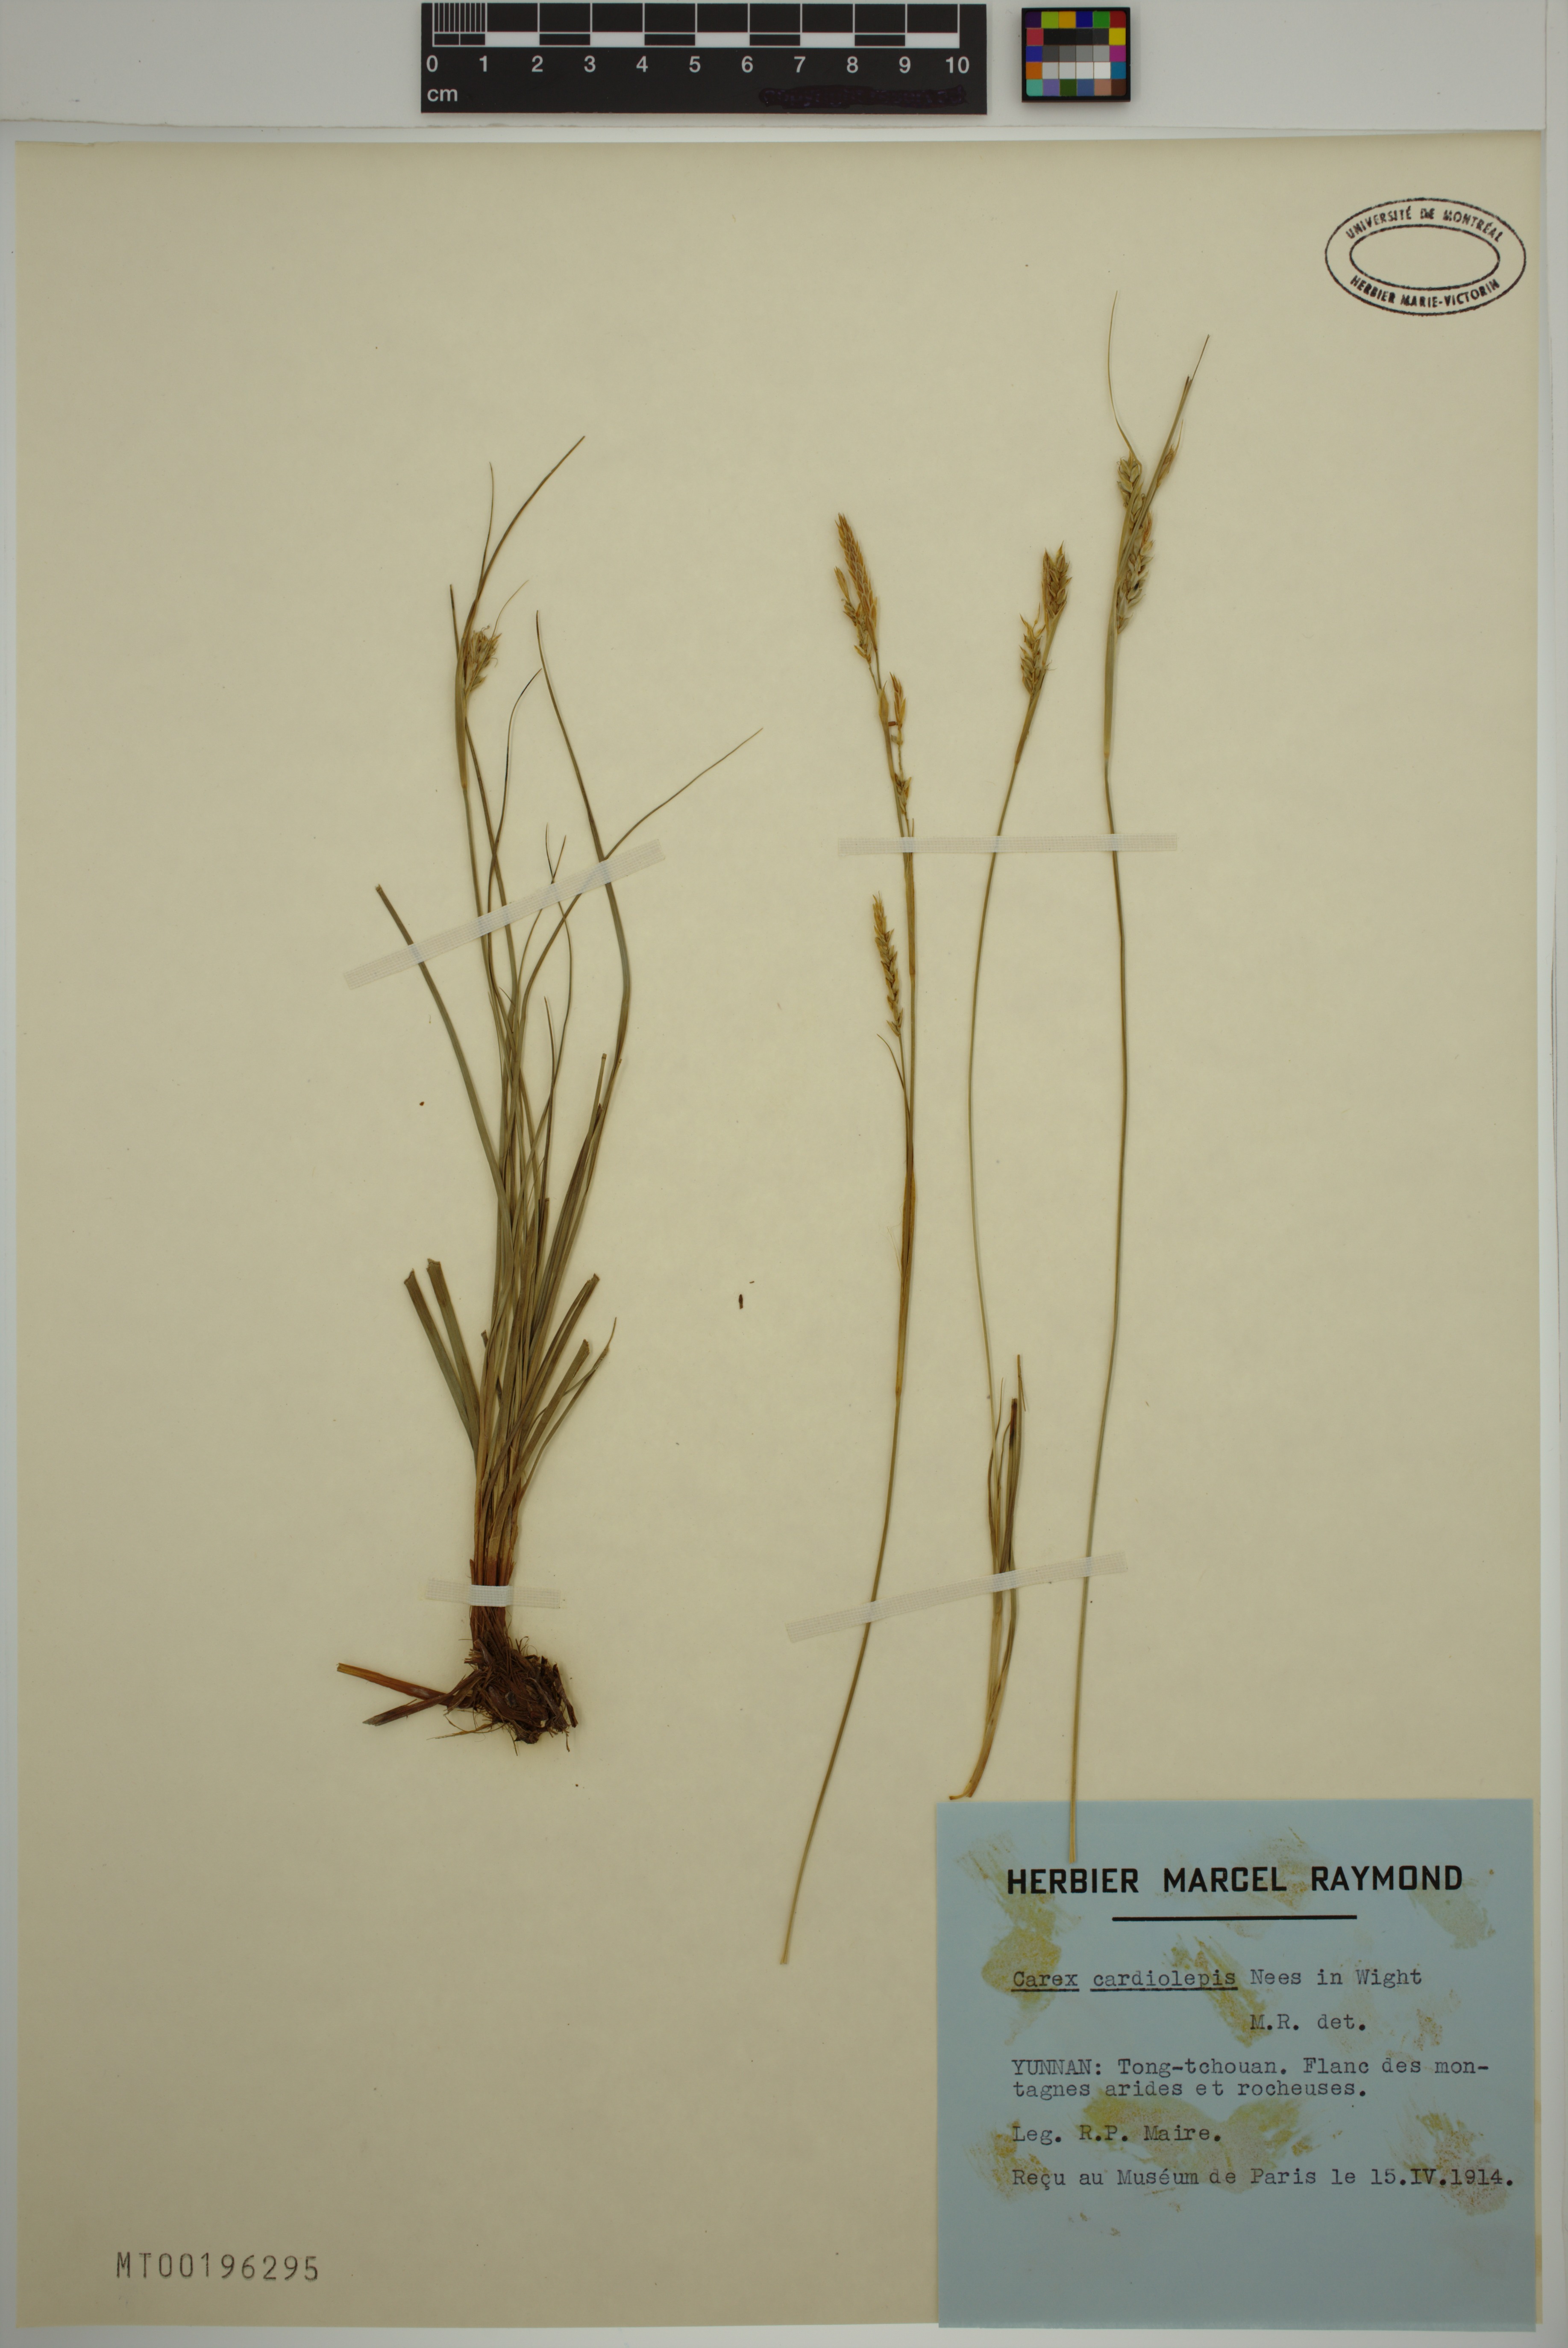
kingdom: Plantae
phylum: Tracheophyta
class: Liliopsida
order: Poales
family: Cyperaceae
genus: Carex
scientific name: Carex cardiolepis
